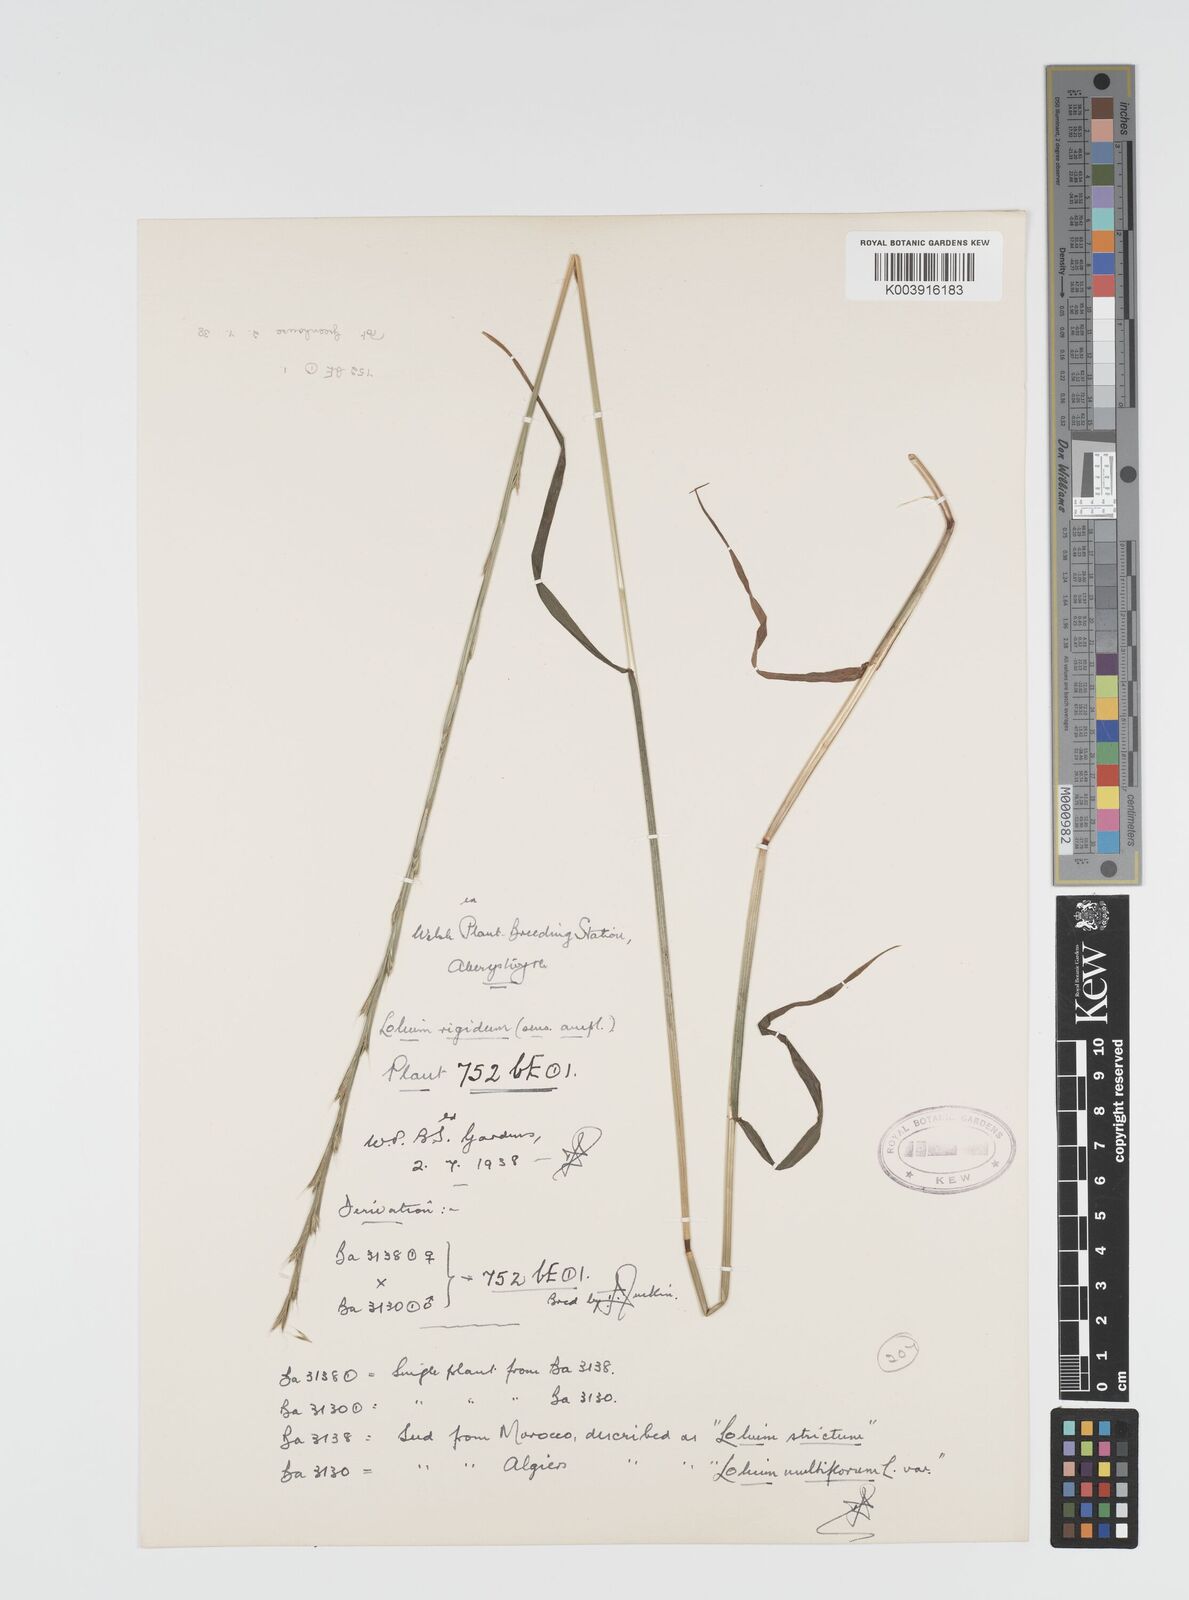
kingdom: Plantae
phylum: Tracheophyta
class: Liliopsida
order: Poales
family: Poaceae
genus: Lolium
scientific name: Lolium rigidum
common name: Wimmera ryegrass
